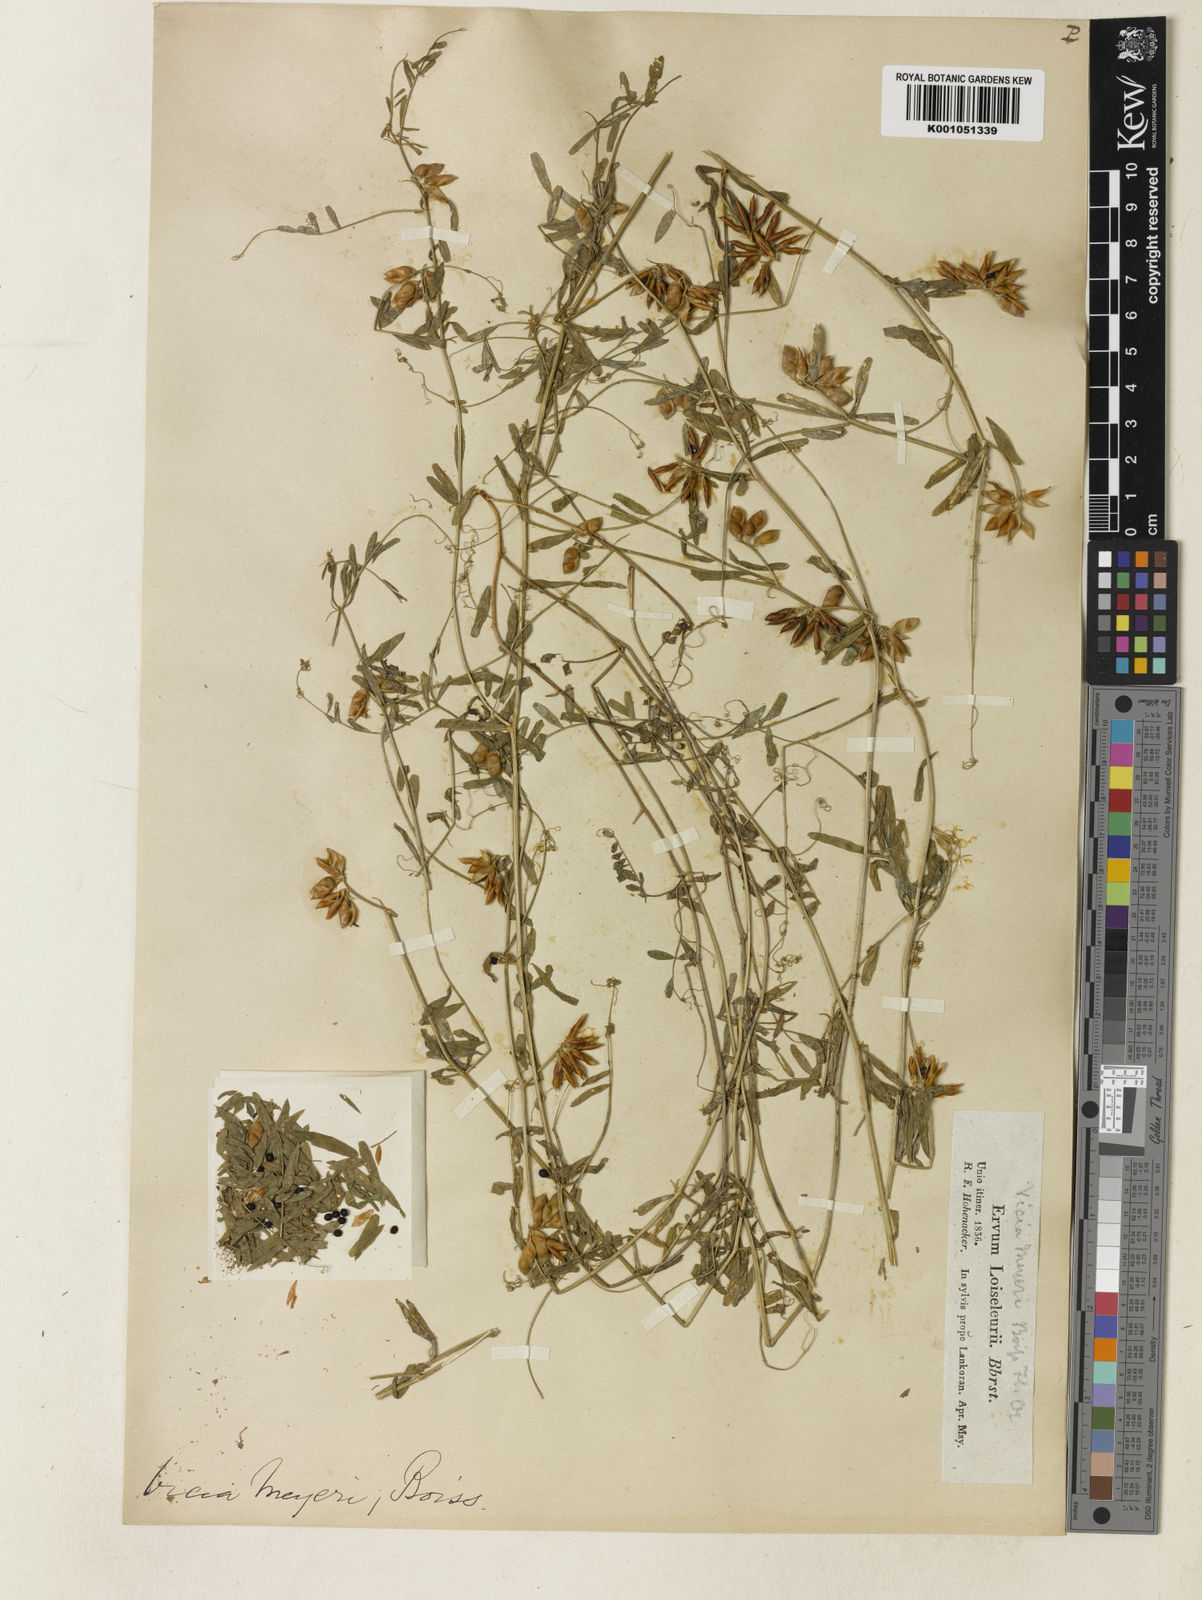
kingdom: Plantae
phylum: Tracheophyta
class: Magnoliopsida
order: Fabales
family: Fabaceae
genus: Vicia
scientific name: Vicia loiseleurii
